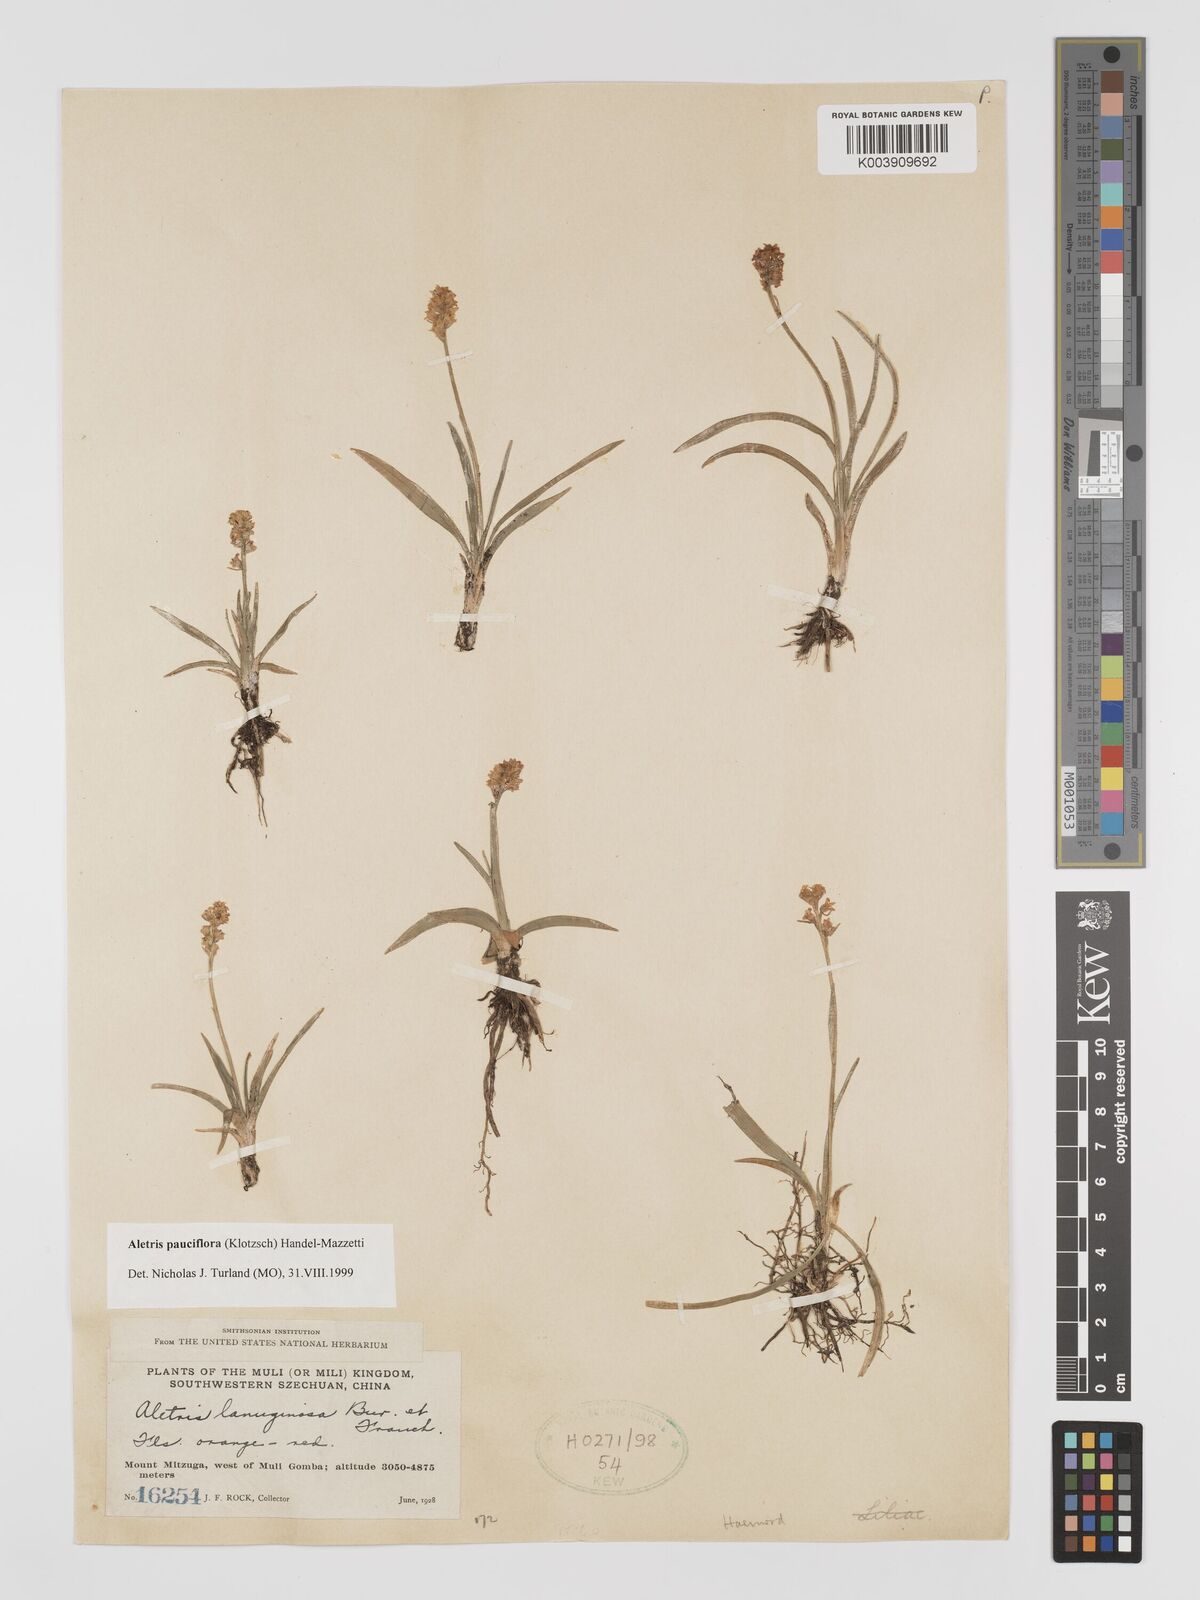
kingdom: Plantae
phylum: Tracheophyta
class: Liliopsida
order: Dioscoreales
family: Nartheciaceae
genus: Aletris
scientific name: Aletris pauciflora
